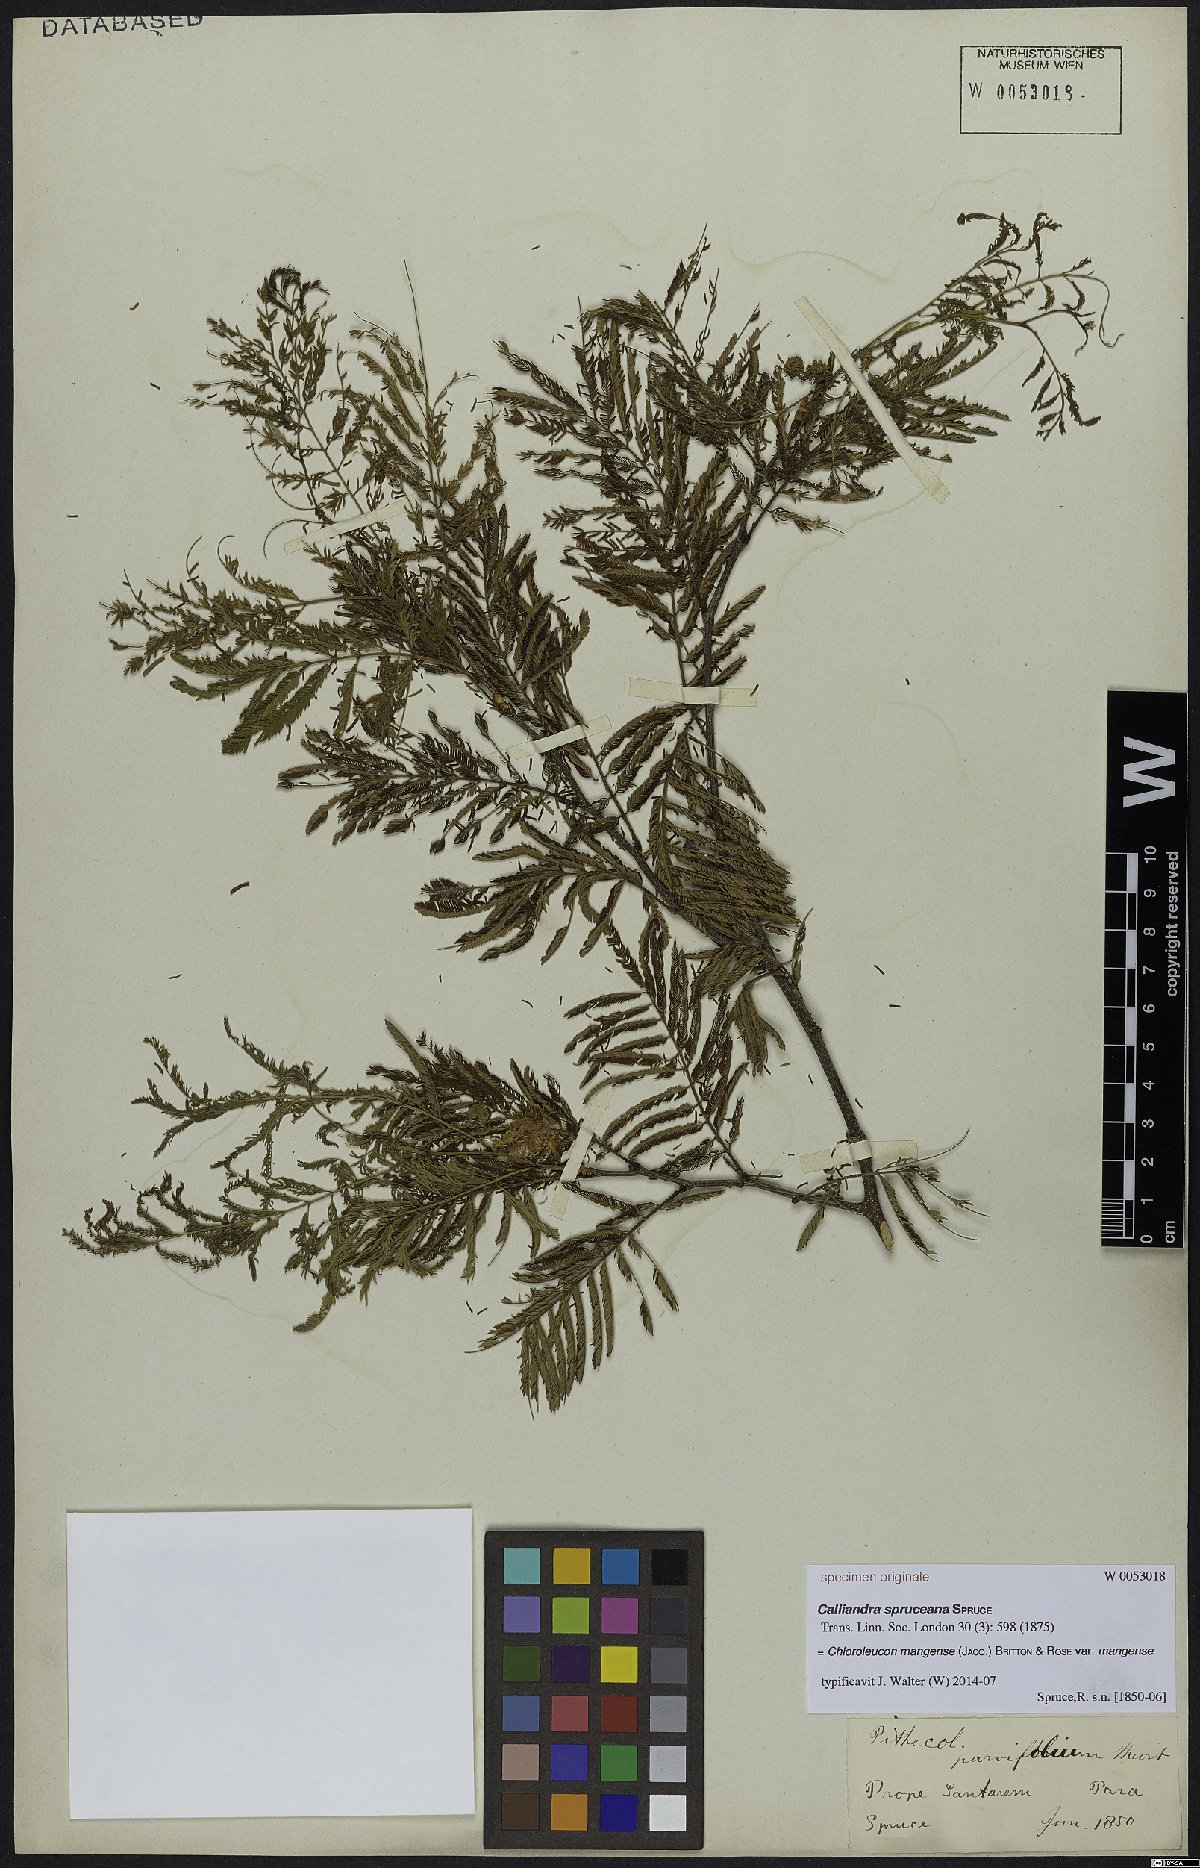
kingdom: Plantae
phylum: Tracheophyta
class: Magnoliopsida
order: Fabales
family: Fabaceae
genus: Chloroleucon
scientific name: Chloroleucon mangense
